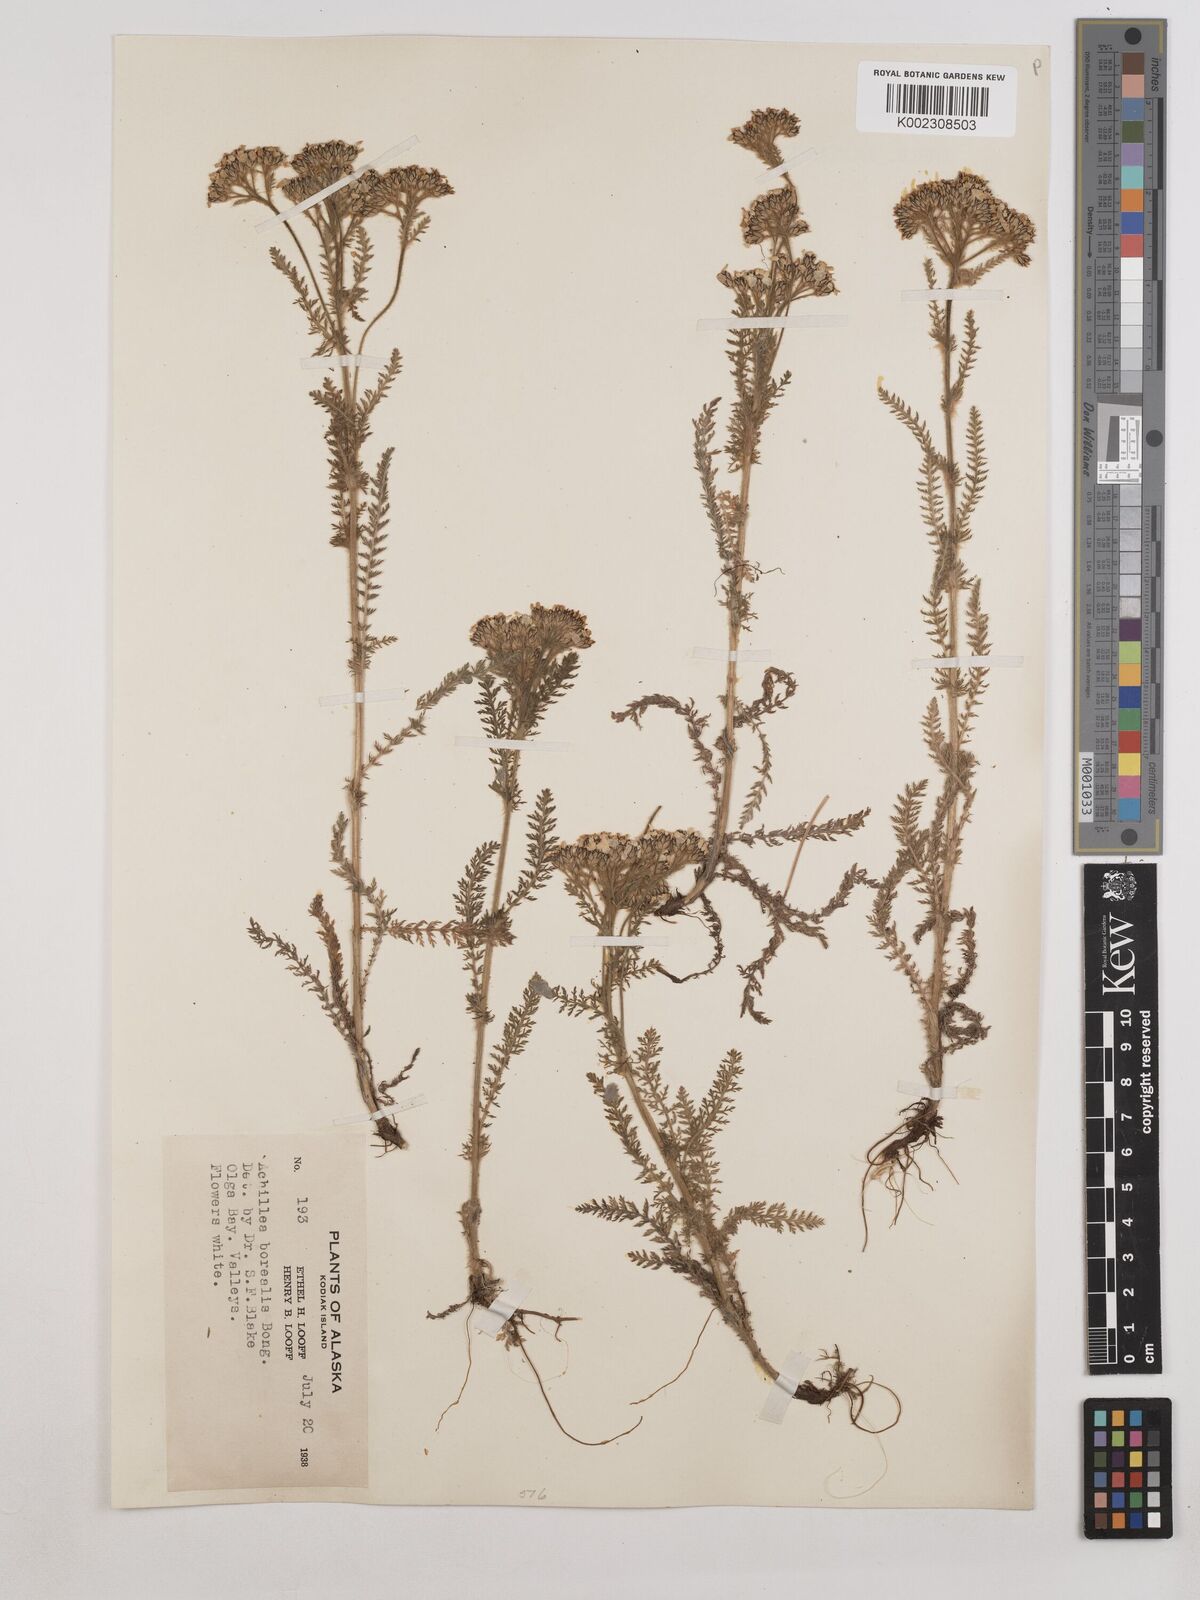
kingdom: Plantae
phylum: Tracheophyta
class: Magnoliopsida
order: Asterales
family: Asteraceae
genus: Achillea
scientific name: Achillea millefolium
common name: Yarrow
